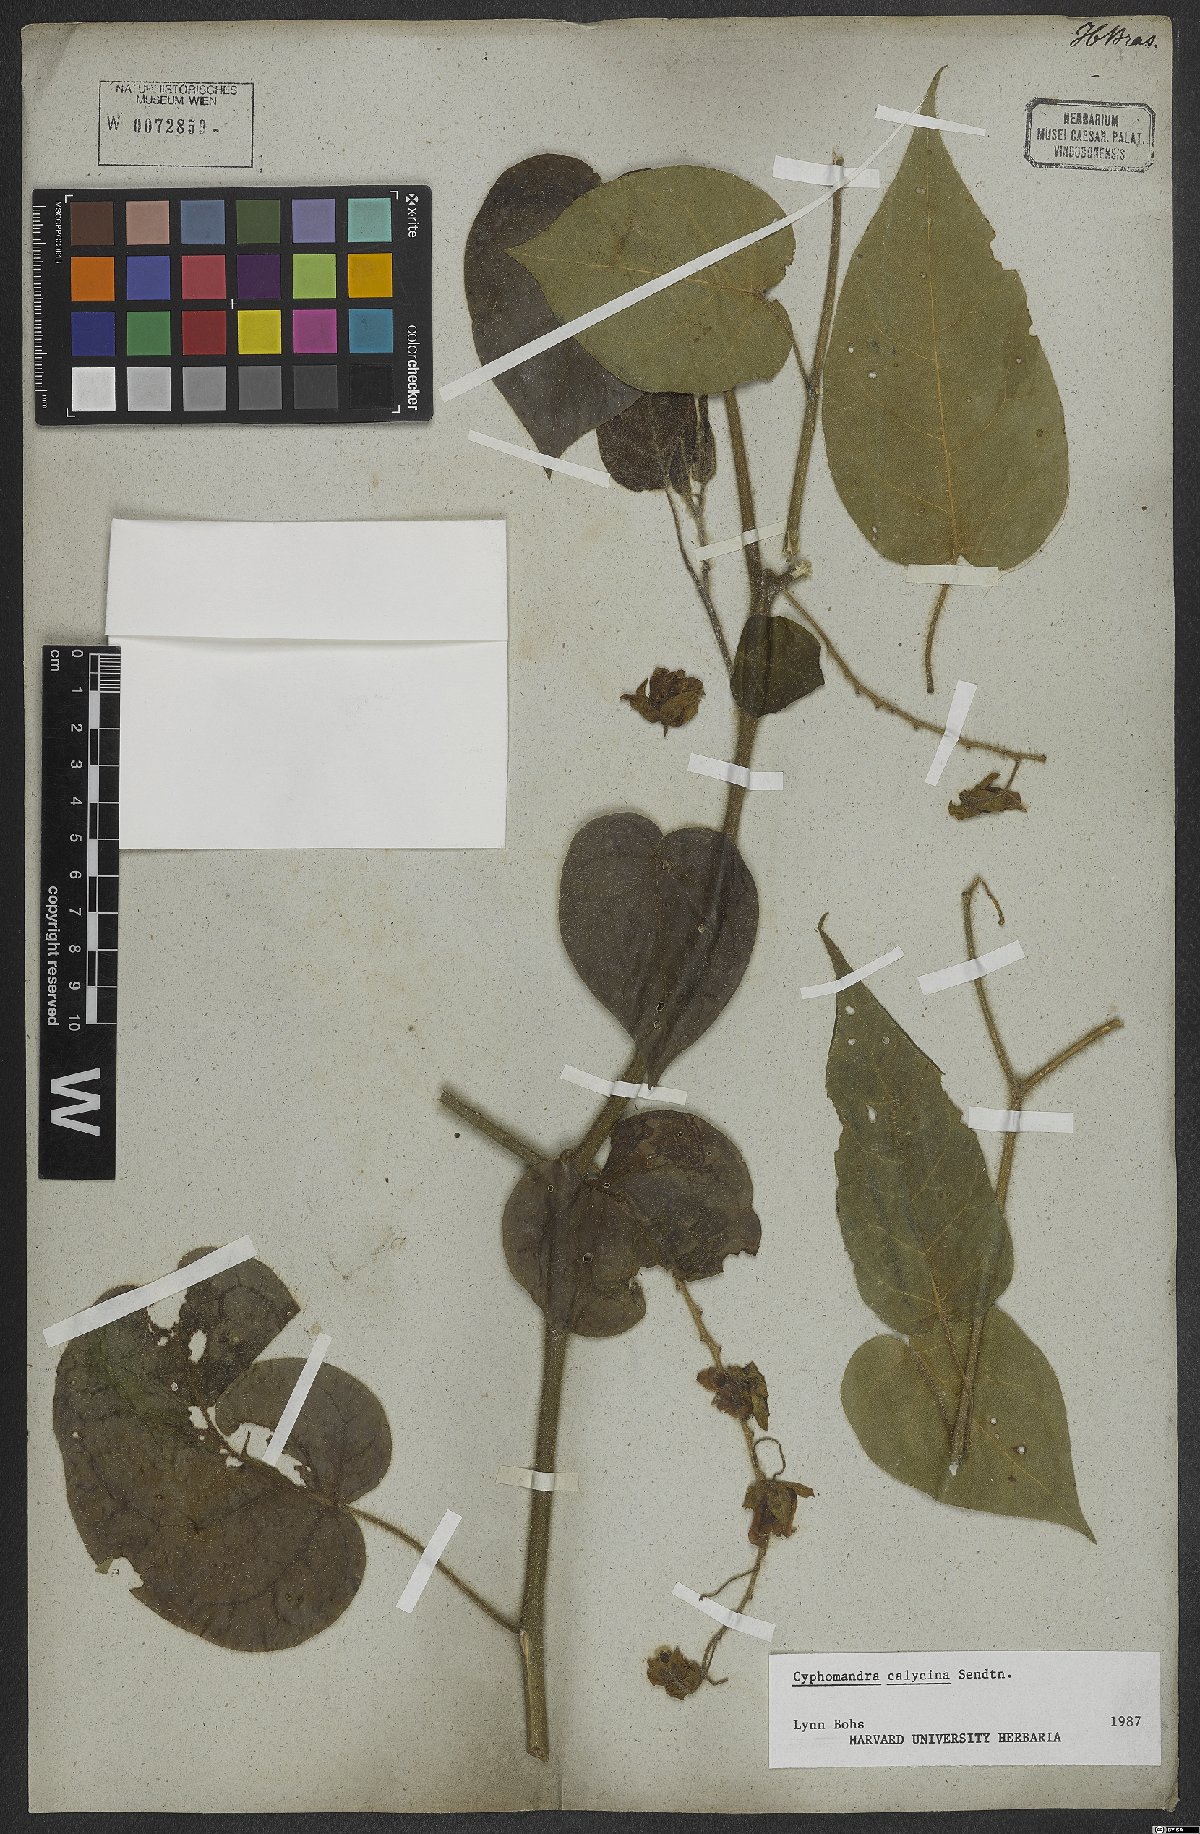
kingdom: Plantae
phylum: Tracheophyta
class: Magnoliopsida
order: Solanales
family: Solanaceae
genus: Solanum
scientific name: Solanum latiflorum
